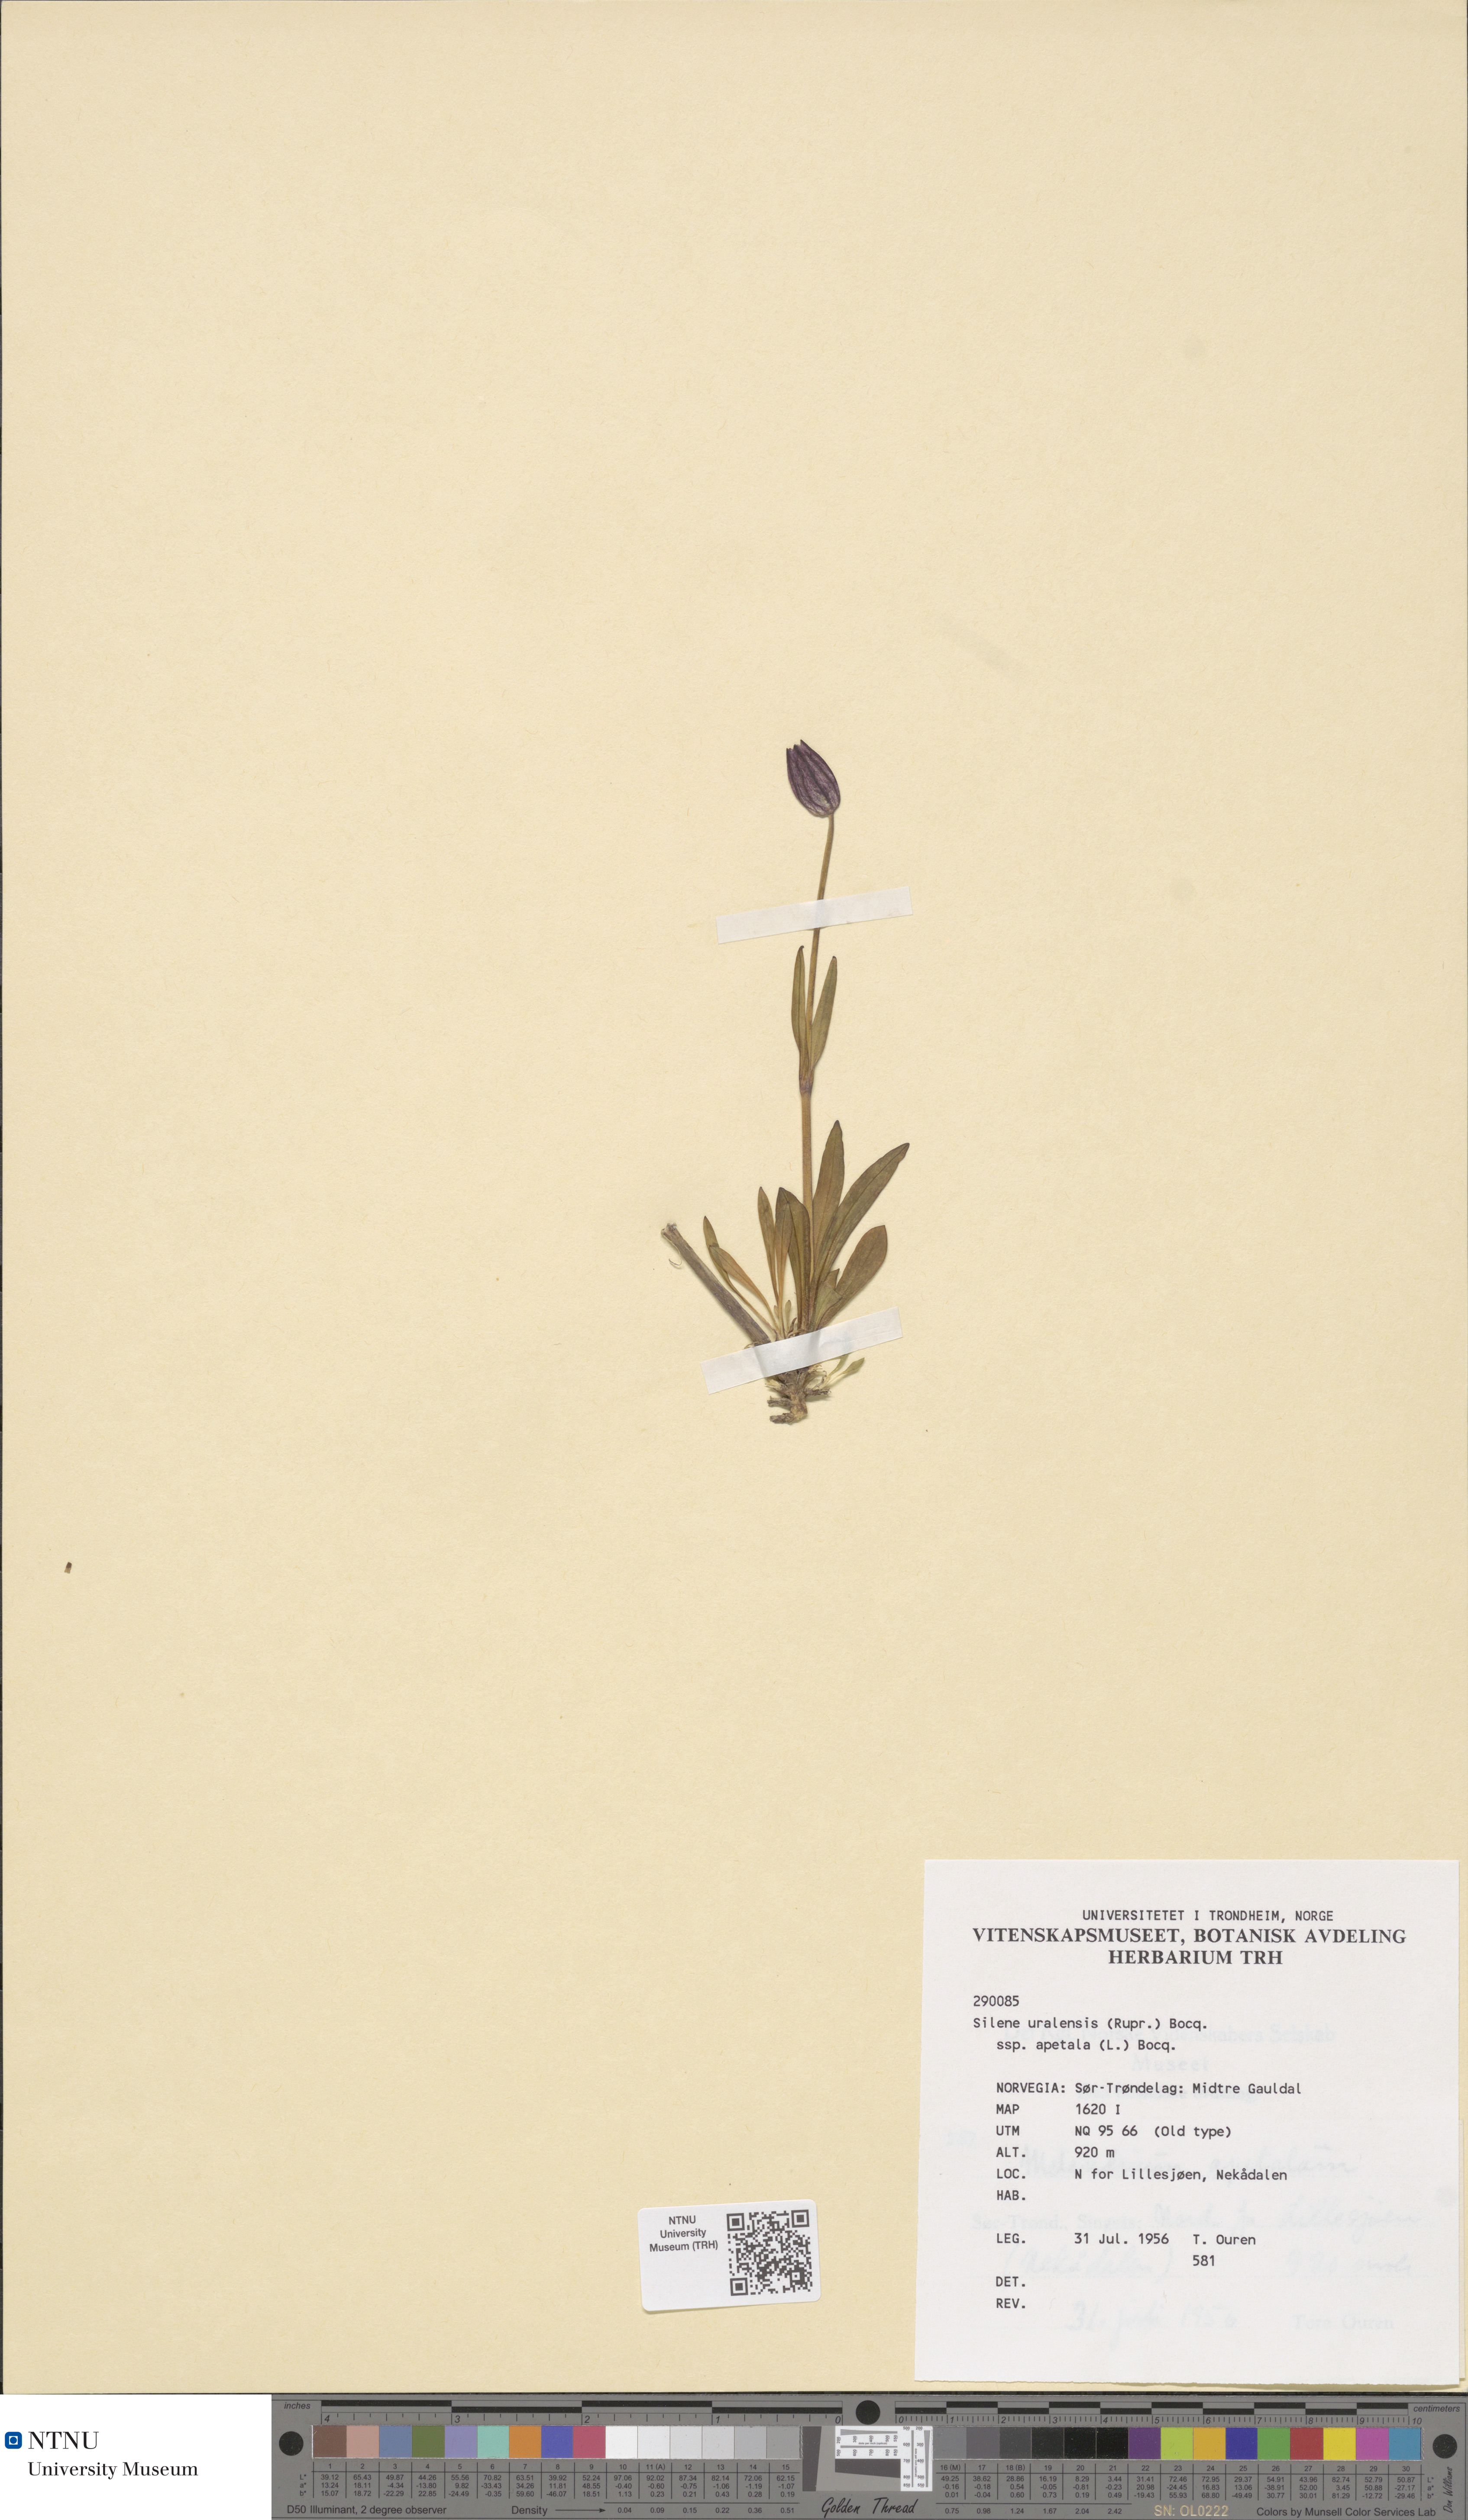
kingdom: Plantae
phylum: Tracheophyta
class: Magnoliopsida
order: Caryophyllales
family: Caryophyllaceae
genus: Silene
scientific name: Silene wahlbergella
